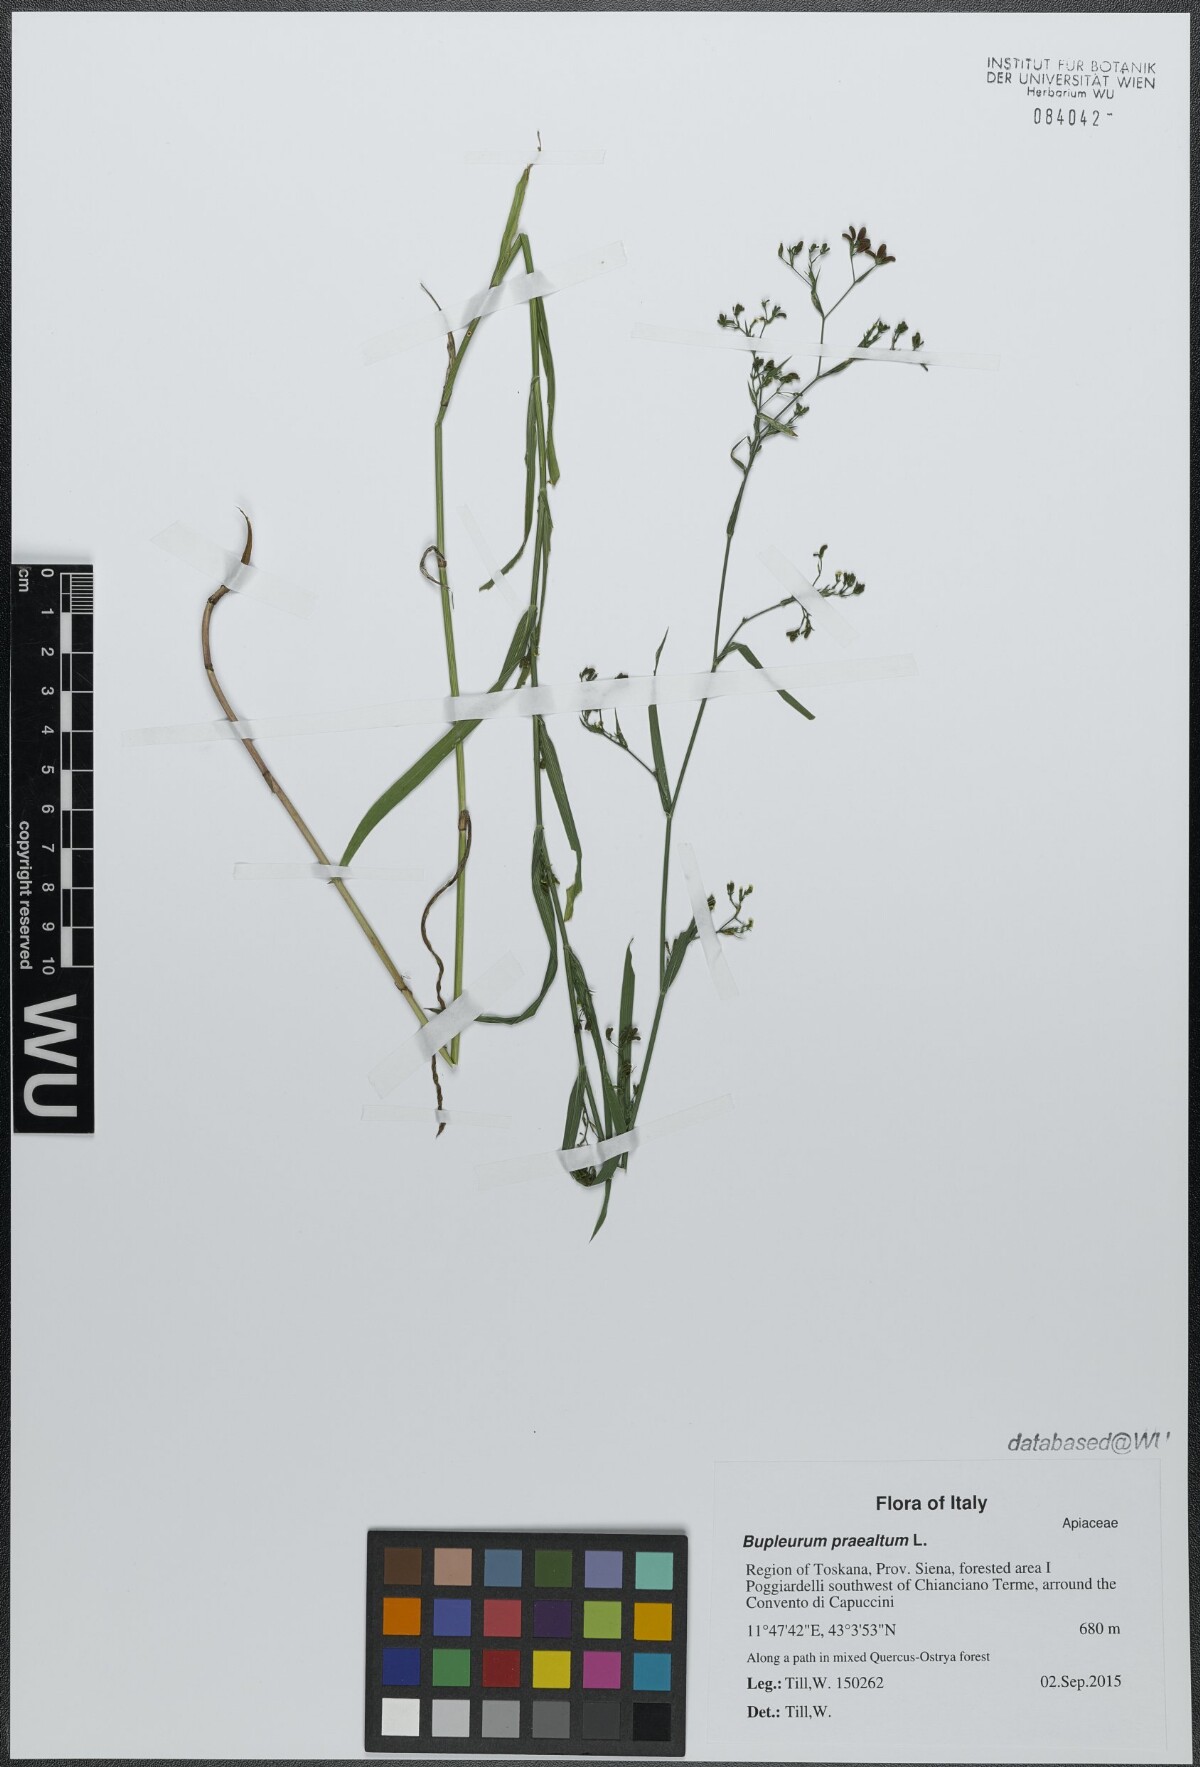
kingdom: Plantae
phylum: Tracheophyta
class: Magnoliopsida
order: Apiales
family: Apiaceae
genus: Bupleurum
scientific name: Bupleurum praealtum
